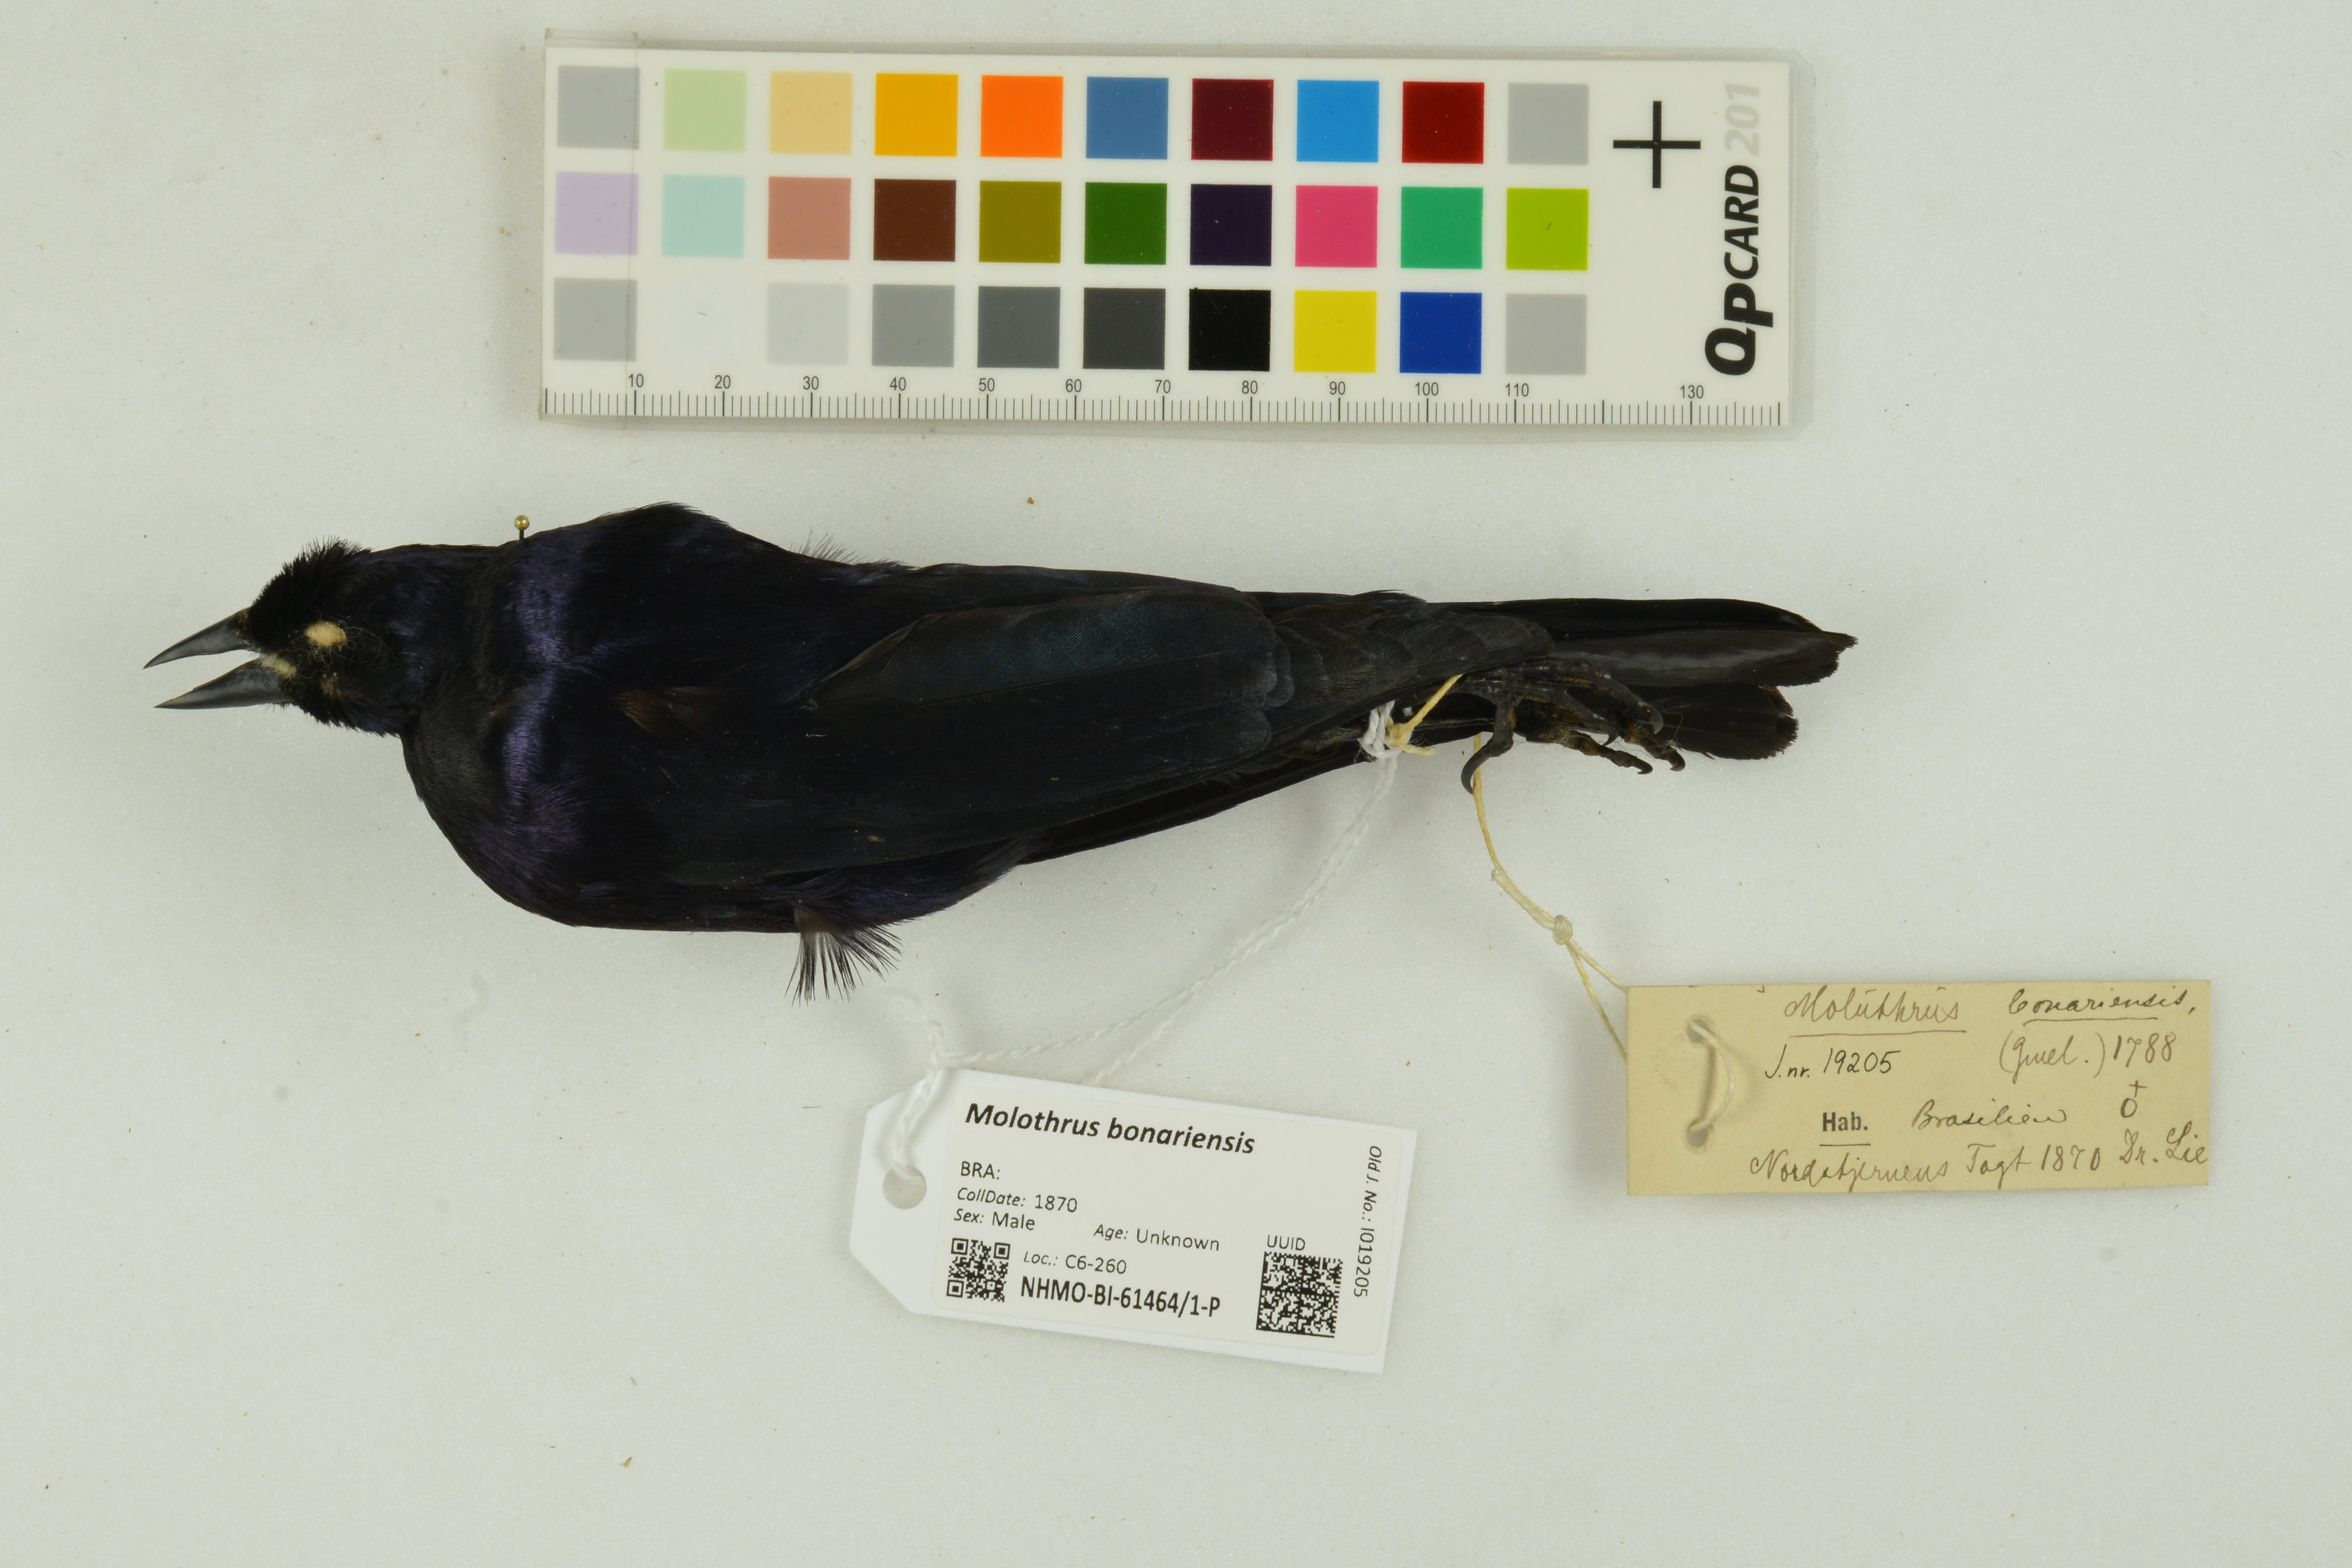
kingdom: Animalia
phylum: Chordata
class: Aves
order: Passeriformes
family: Icteridae
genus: Molothrus
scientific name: Molothrus bonariensis
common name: Shiny cowbird
